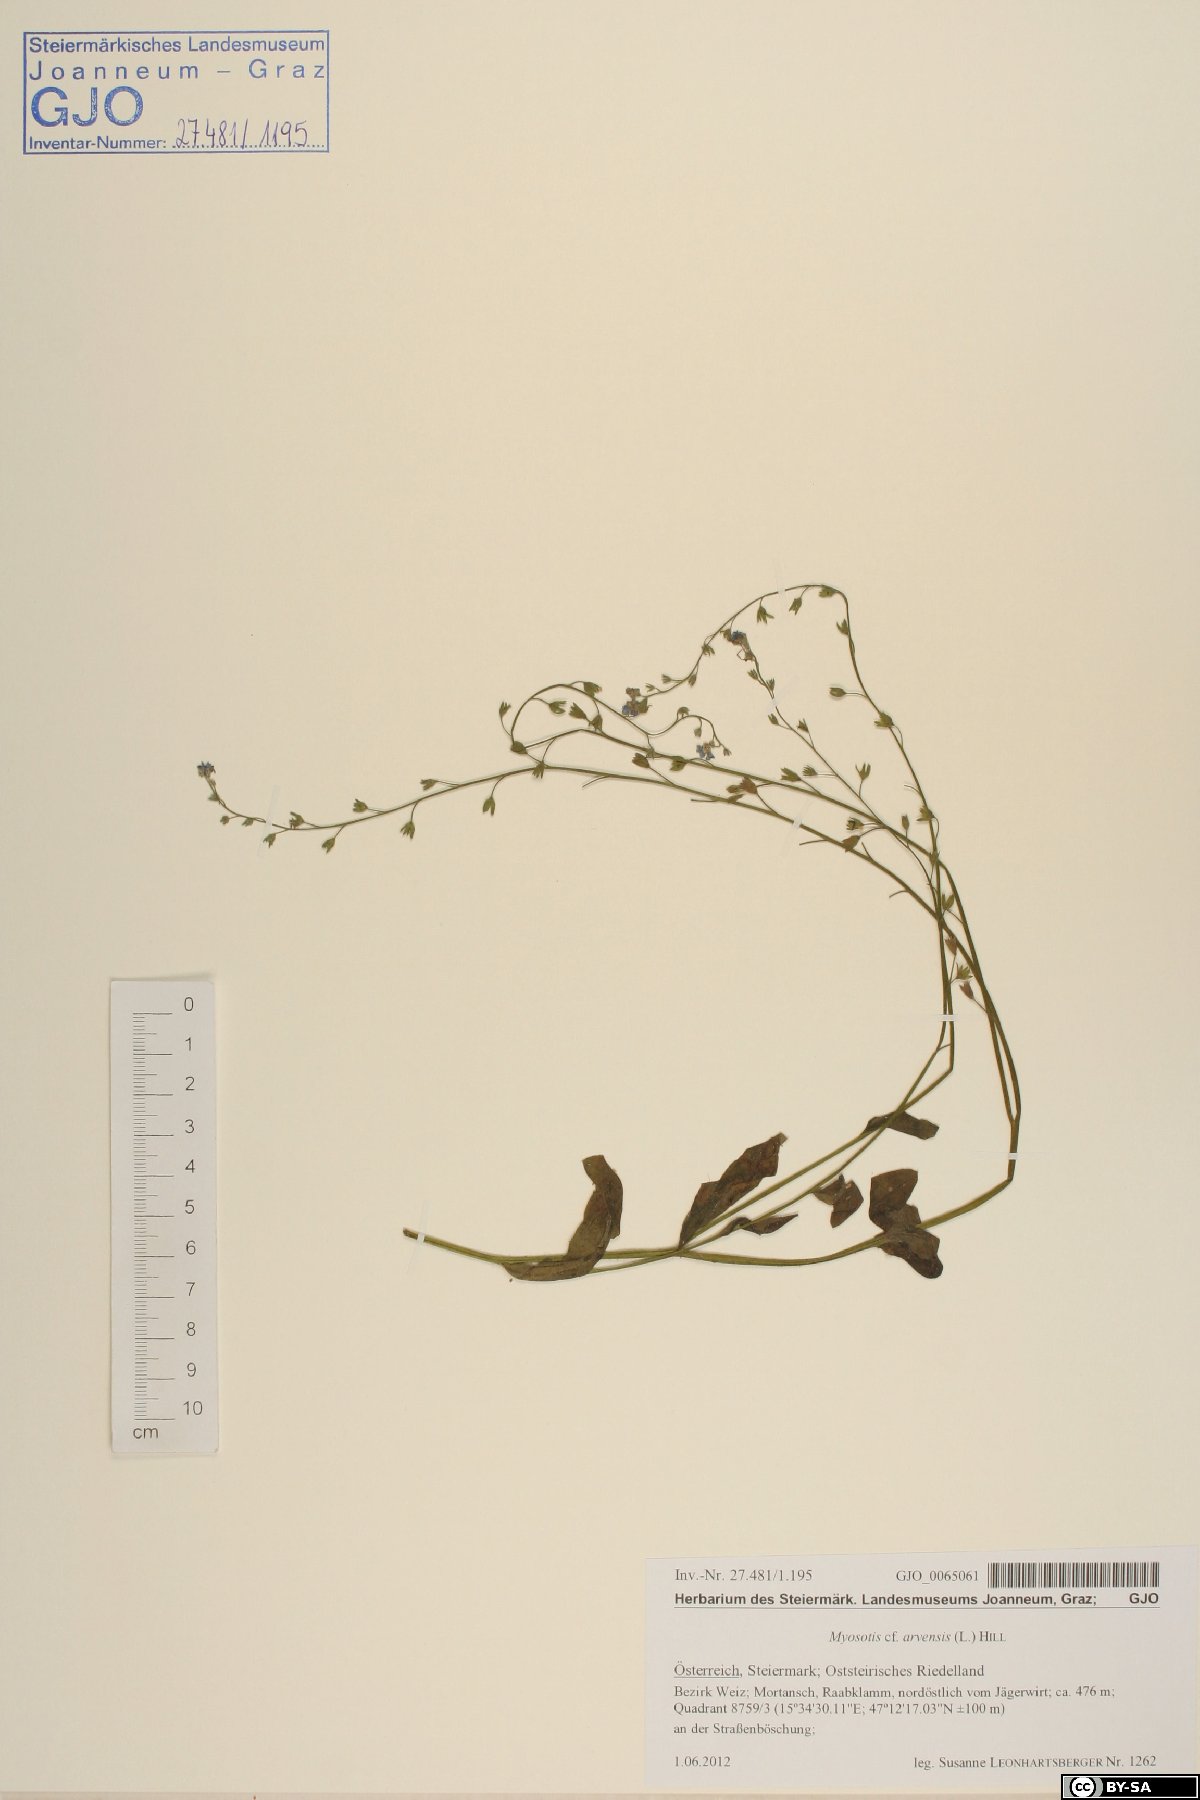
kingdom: Plantae
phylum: Tracheophyta
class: Magnoliopsida
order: Boraginales
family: Boraginaceae
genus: Myosotis
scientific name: Myosotis arvensis
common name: Field forget-me-not
